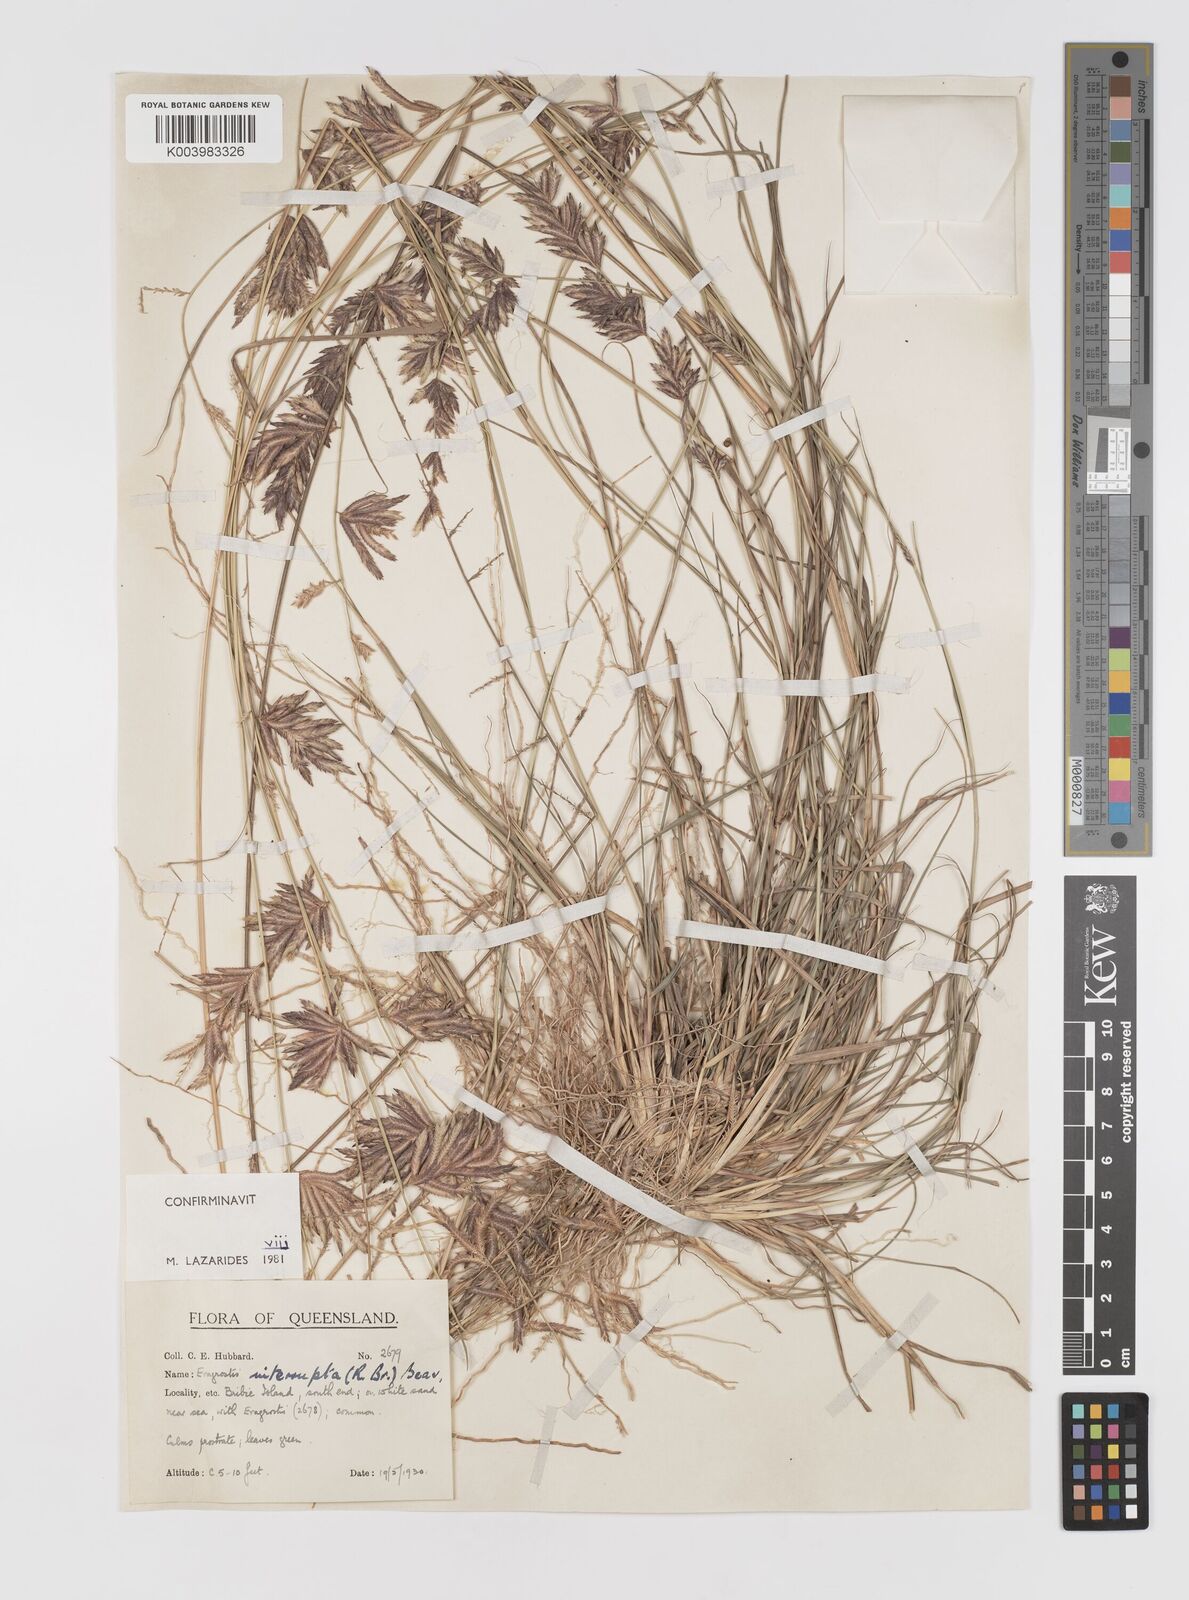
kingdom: Plantae
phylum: Tracheophyta
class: Liliopsida
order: Poales
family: Poaceae
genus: Eragrostis
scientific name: Eragrostis interrupta
